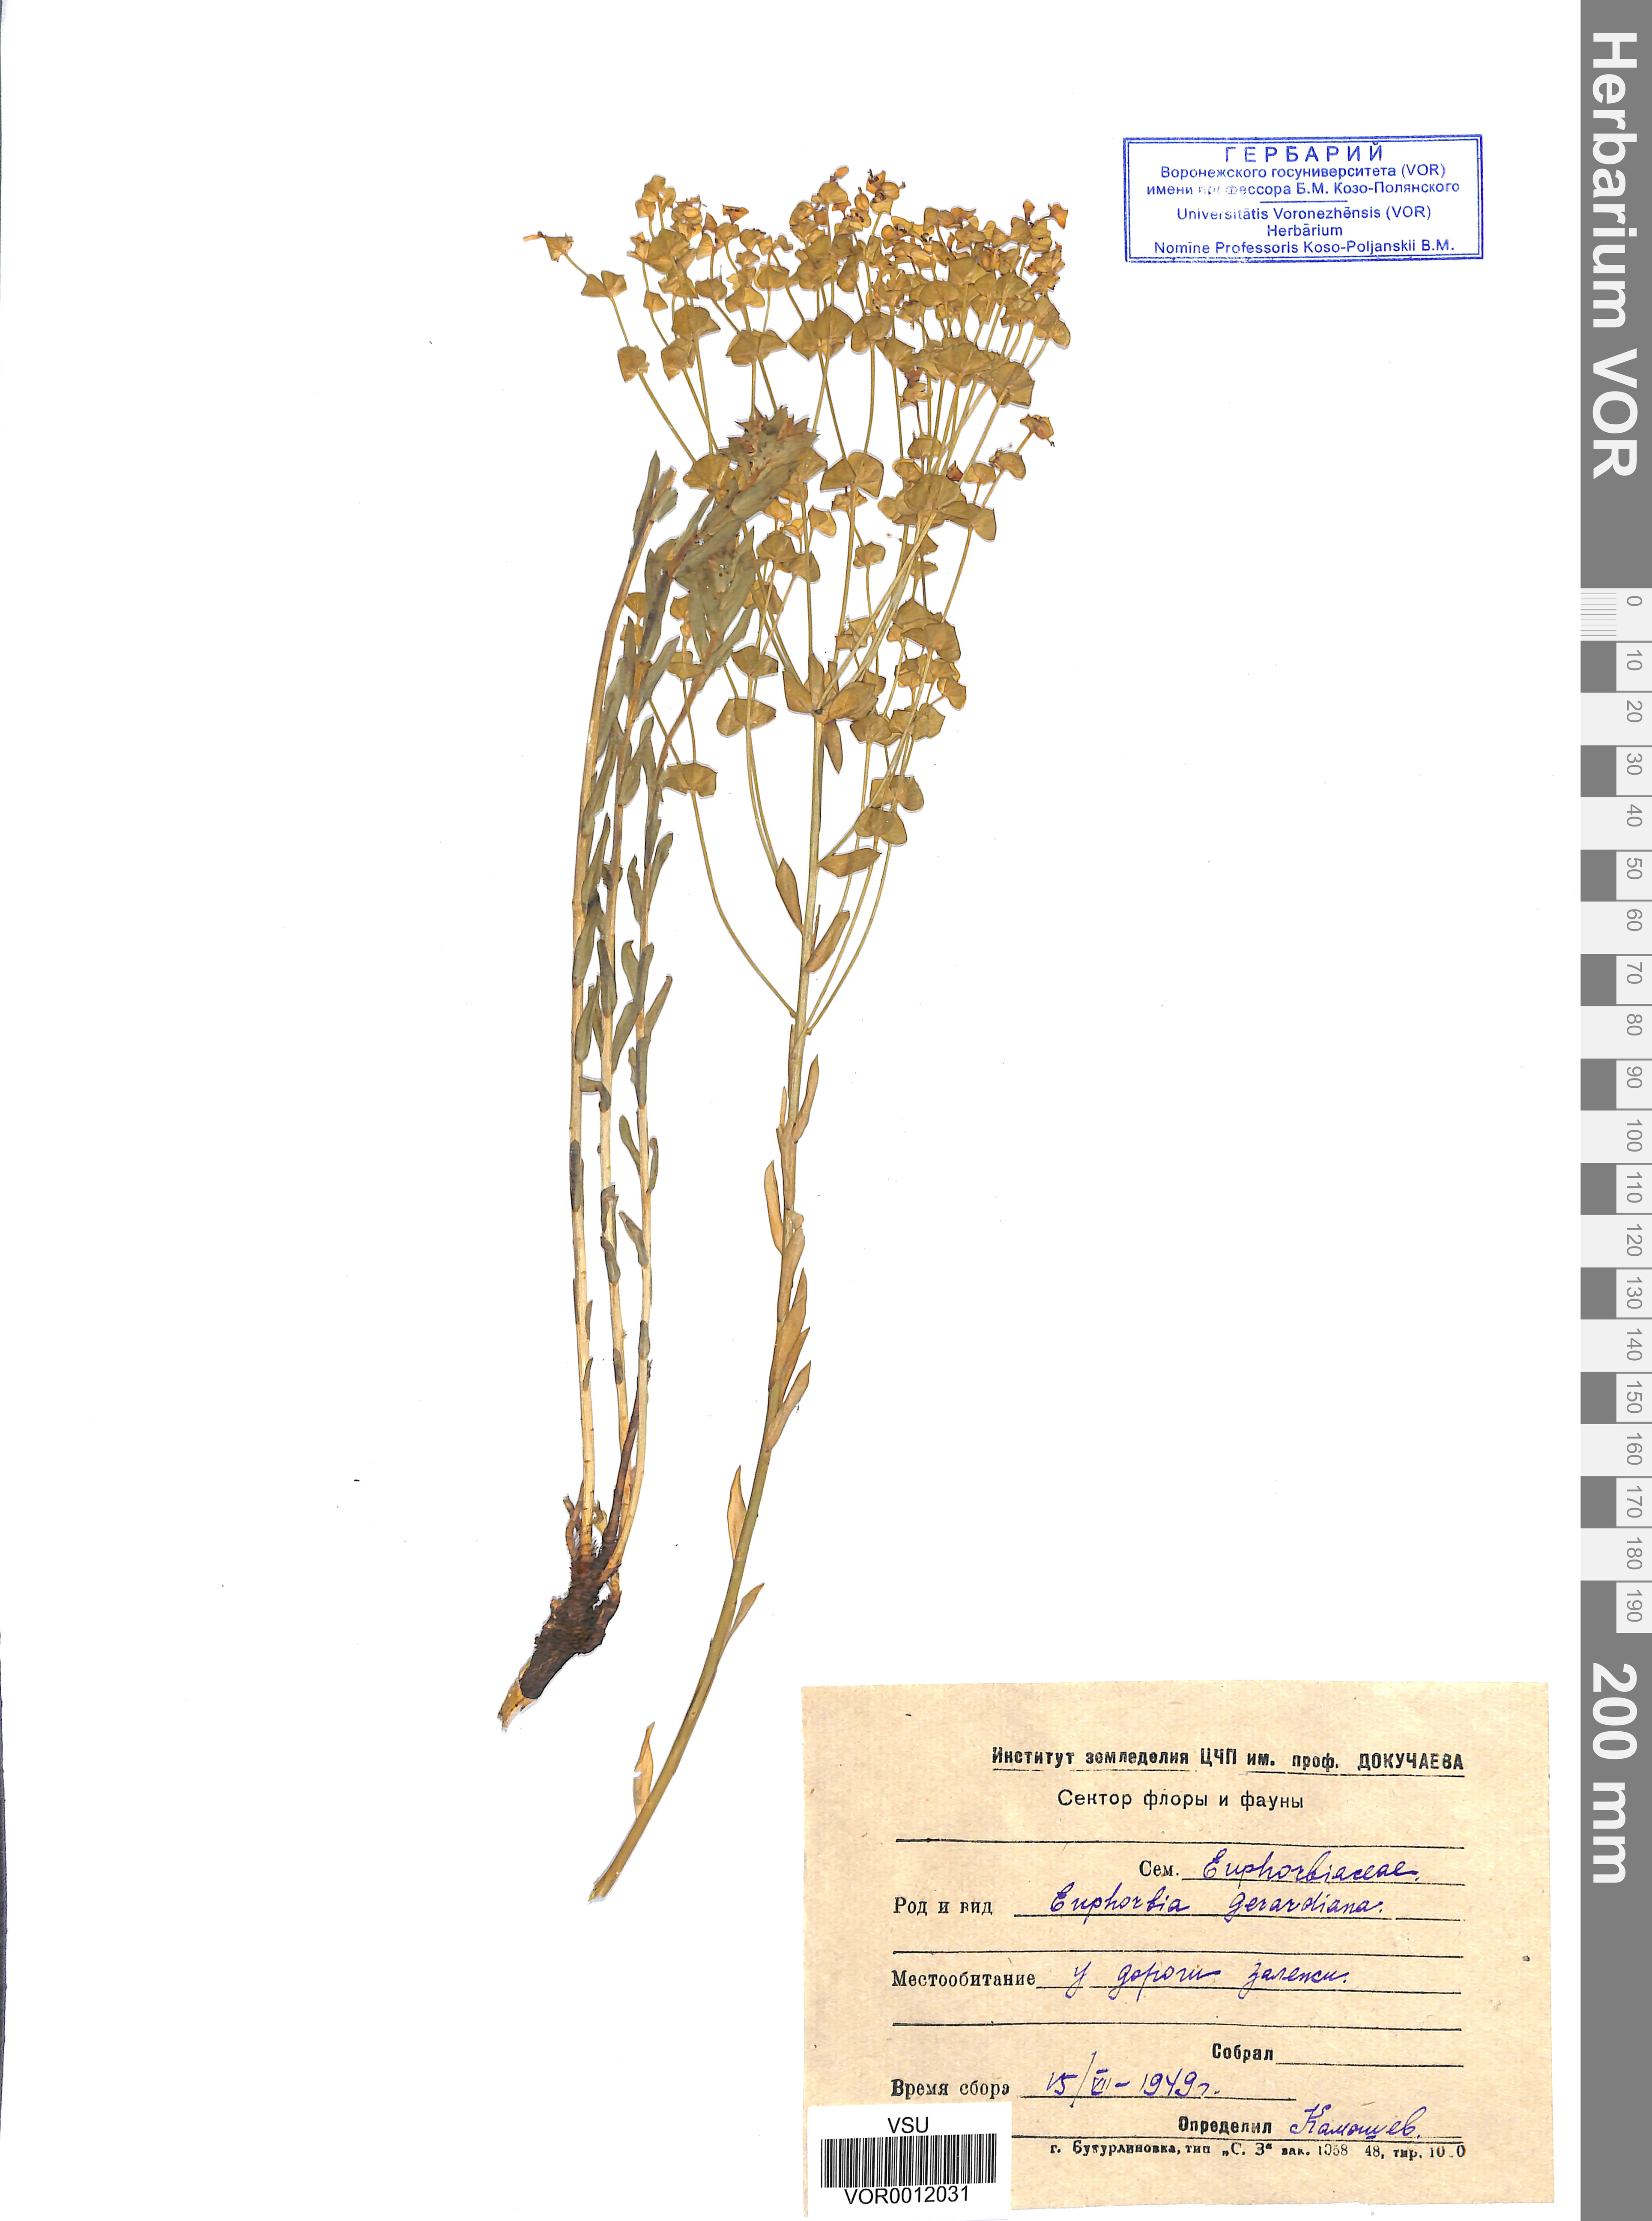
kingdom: Plantae
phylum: Tracheophyta
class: Magnoliopsida
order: Malpighiales
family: Euphorbiaceae
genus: Euphorbia
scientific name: Euphorbia seguieriana
